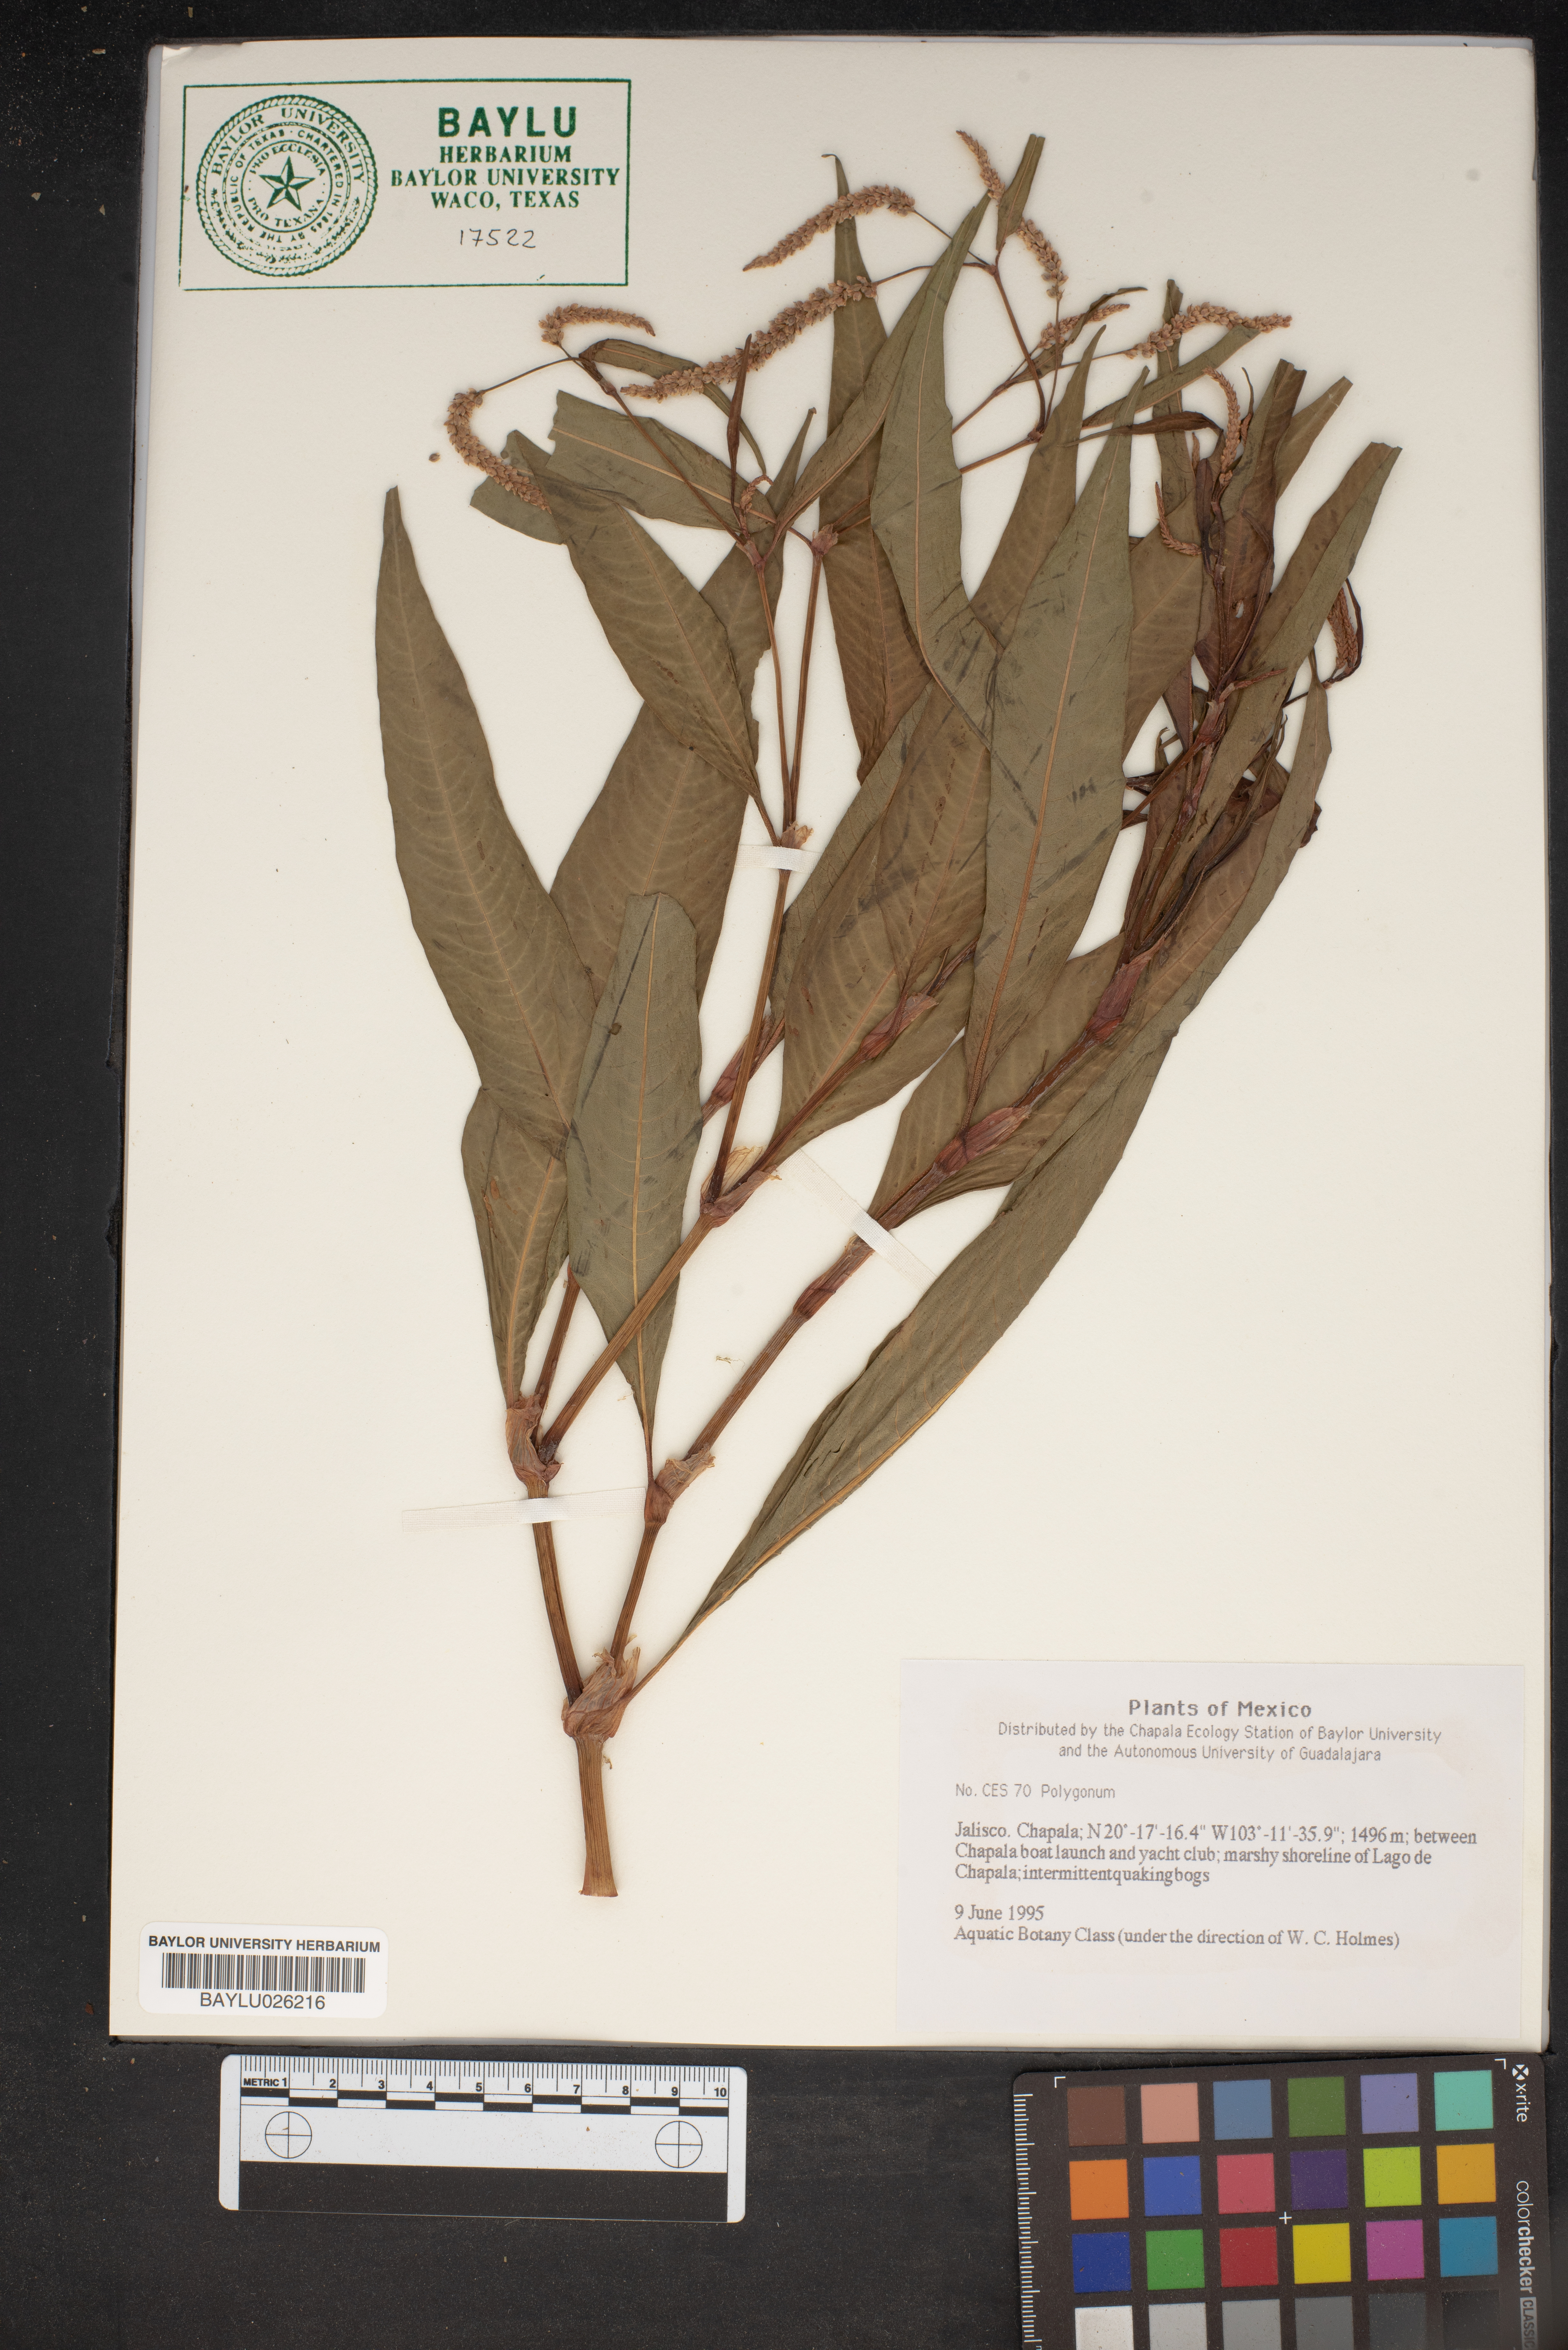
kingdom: Plantae
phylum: Tracheophyta
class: Magnoliopsida
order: Caryophyllales
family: Polygonaceae
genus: Polygonum
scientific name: Polygonum
